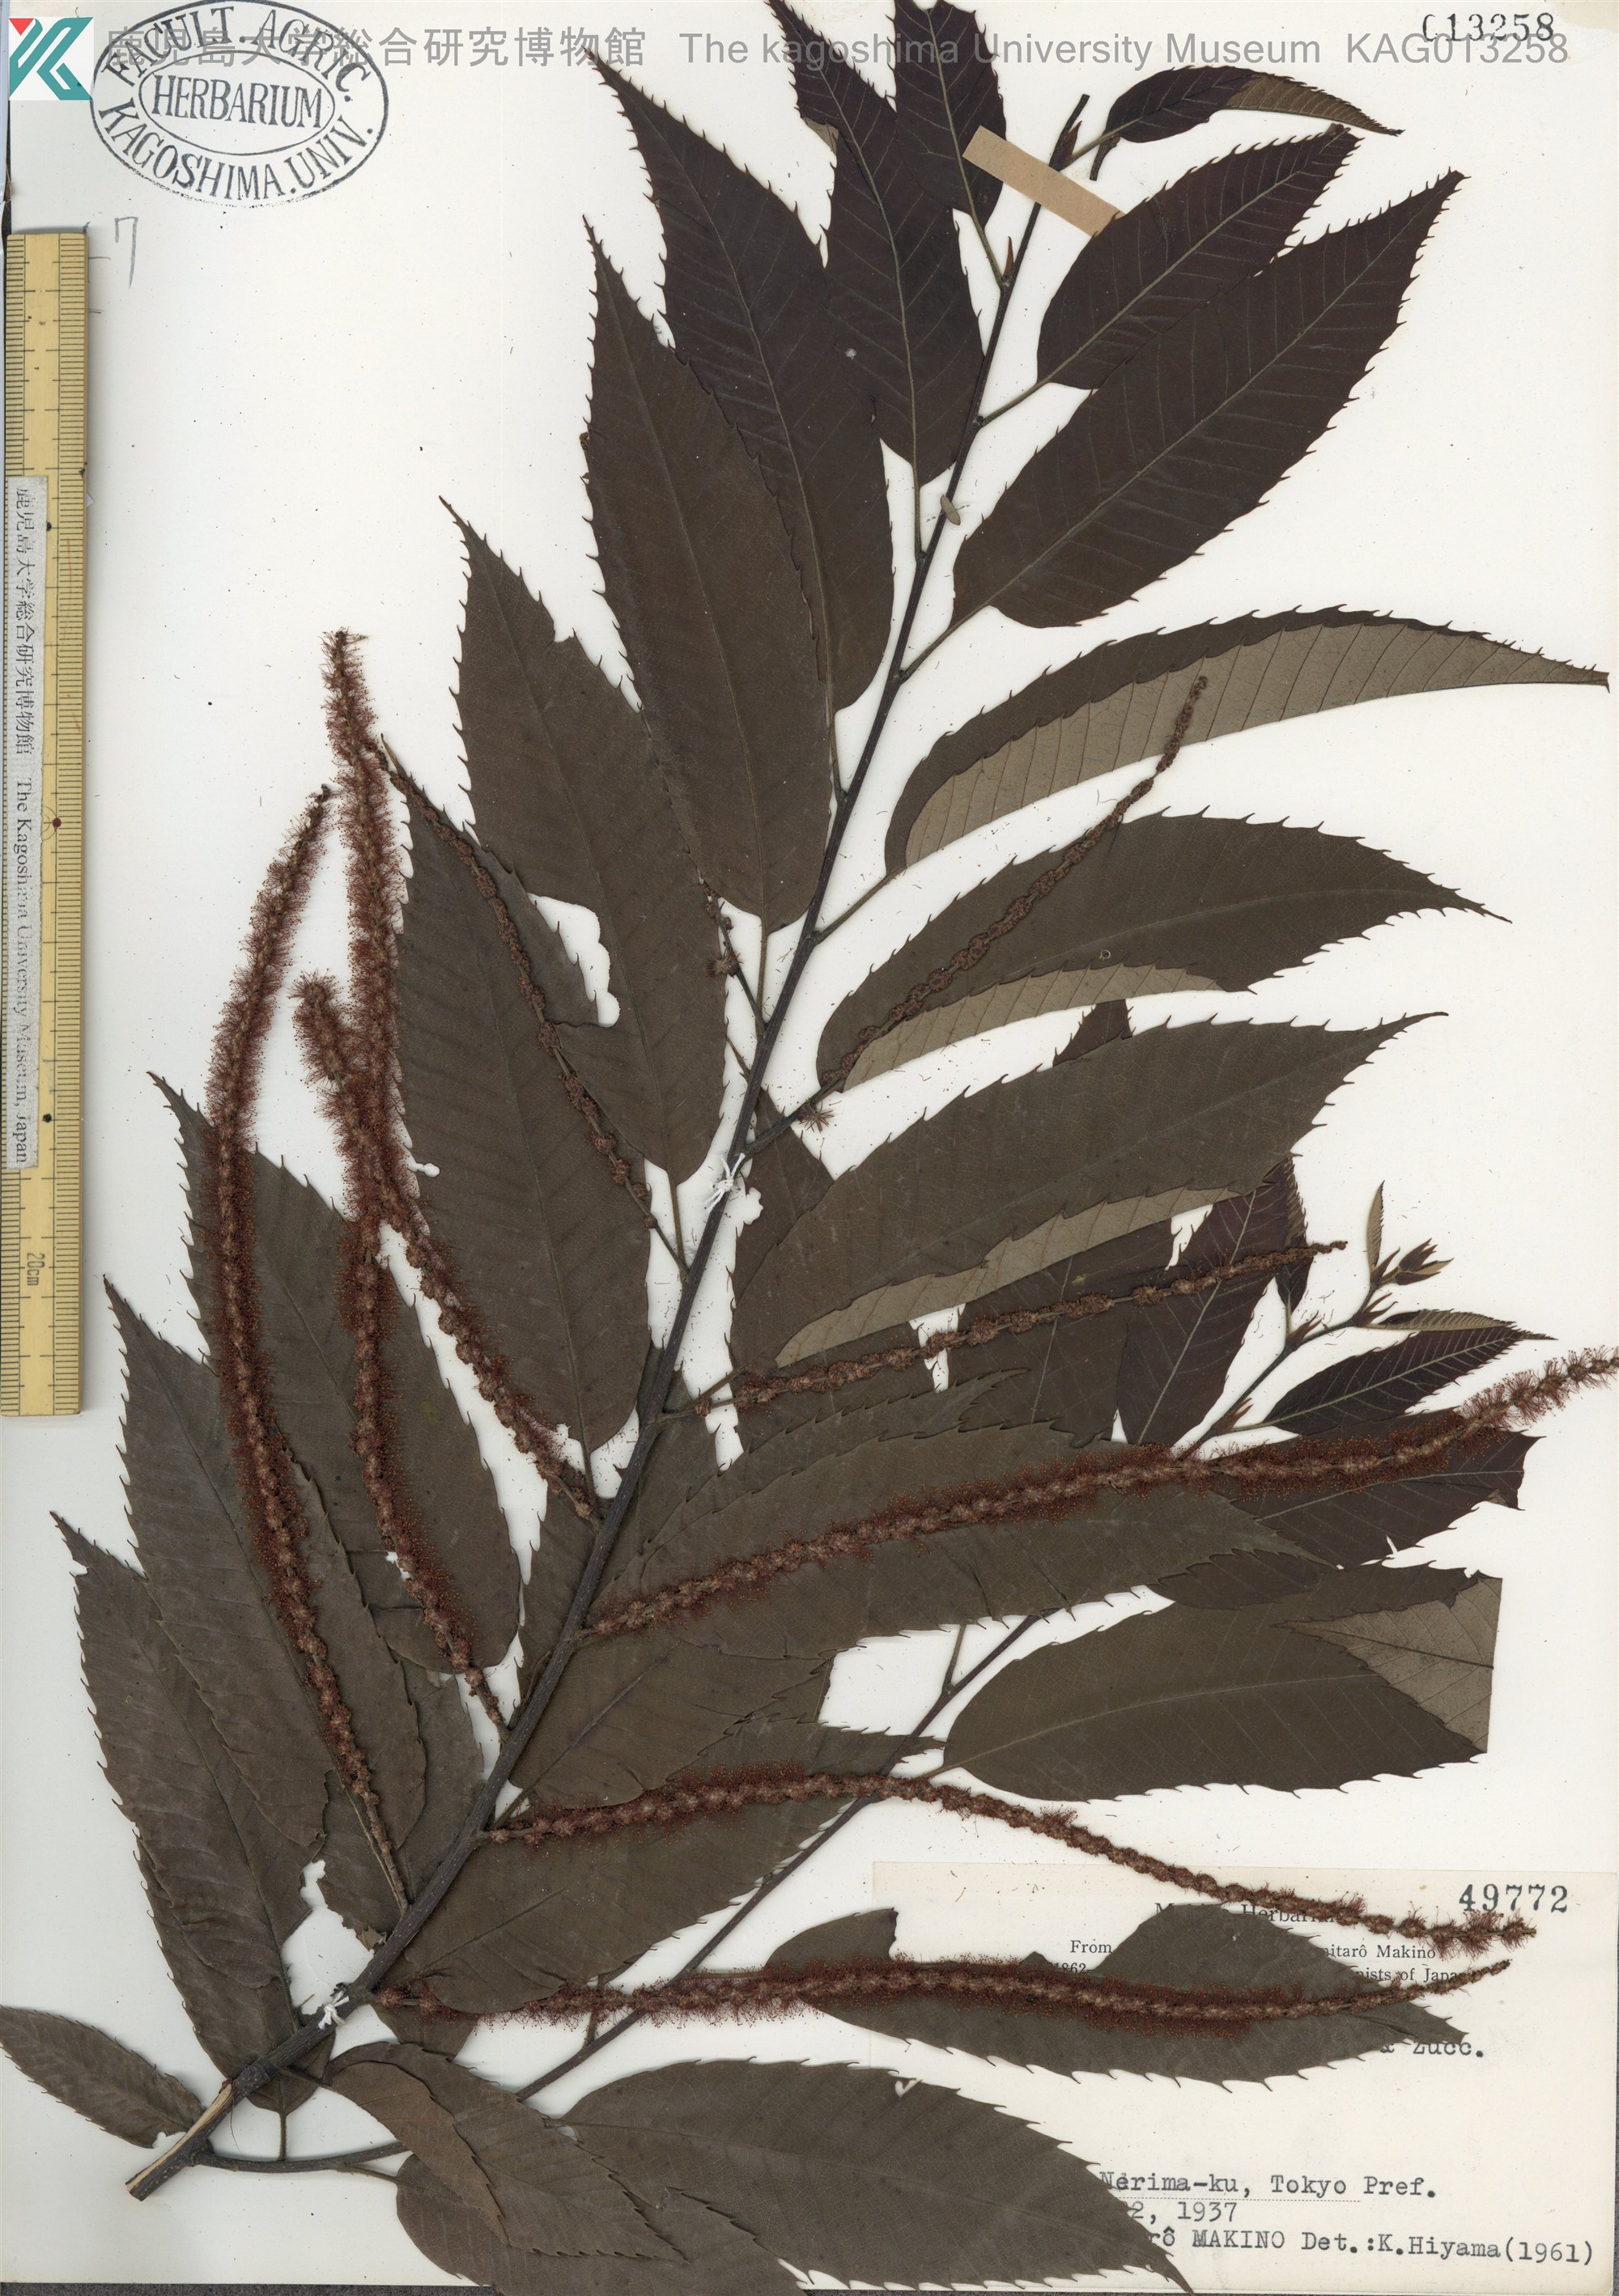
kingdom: Plantae
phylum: Tracheophyta
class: Magnoliopsida
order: Fagales
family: Fagaceae
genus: Castanea
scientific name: Castanea crenata
